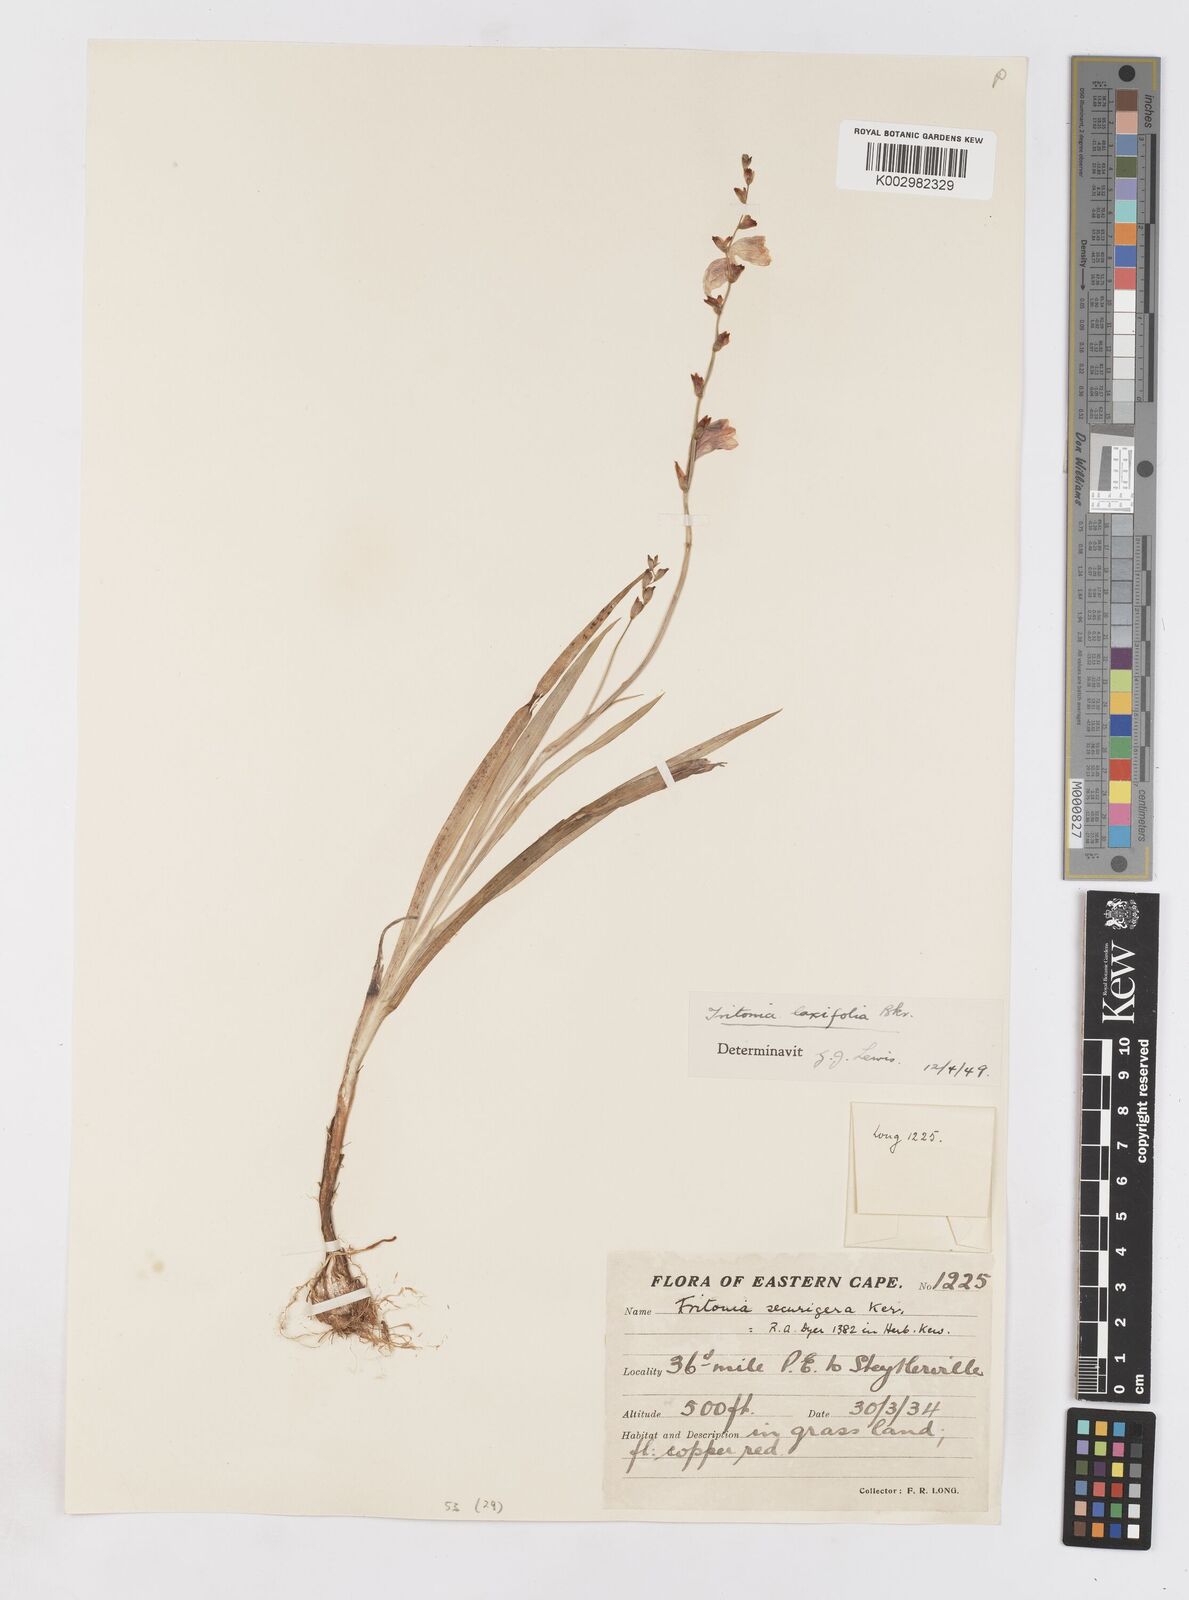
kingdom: Plantae
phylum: Tracheophyta
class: Liliopsida
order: Asparagales
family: Iridaceae
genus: Tritonia
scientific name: Tritonia laxifolia
